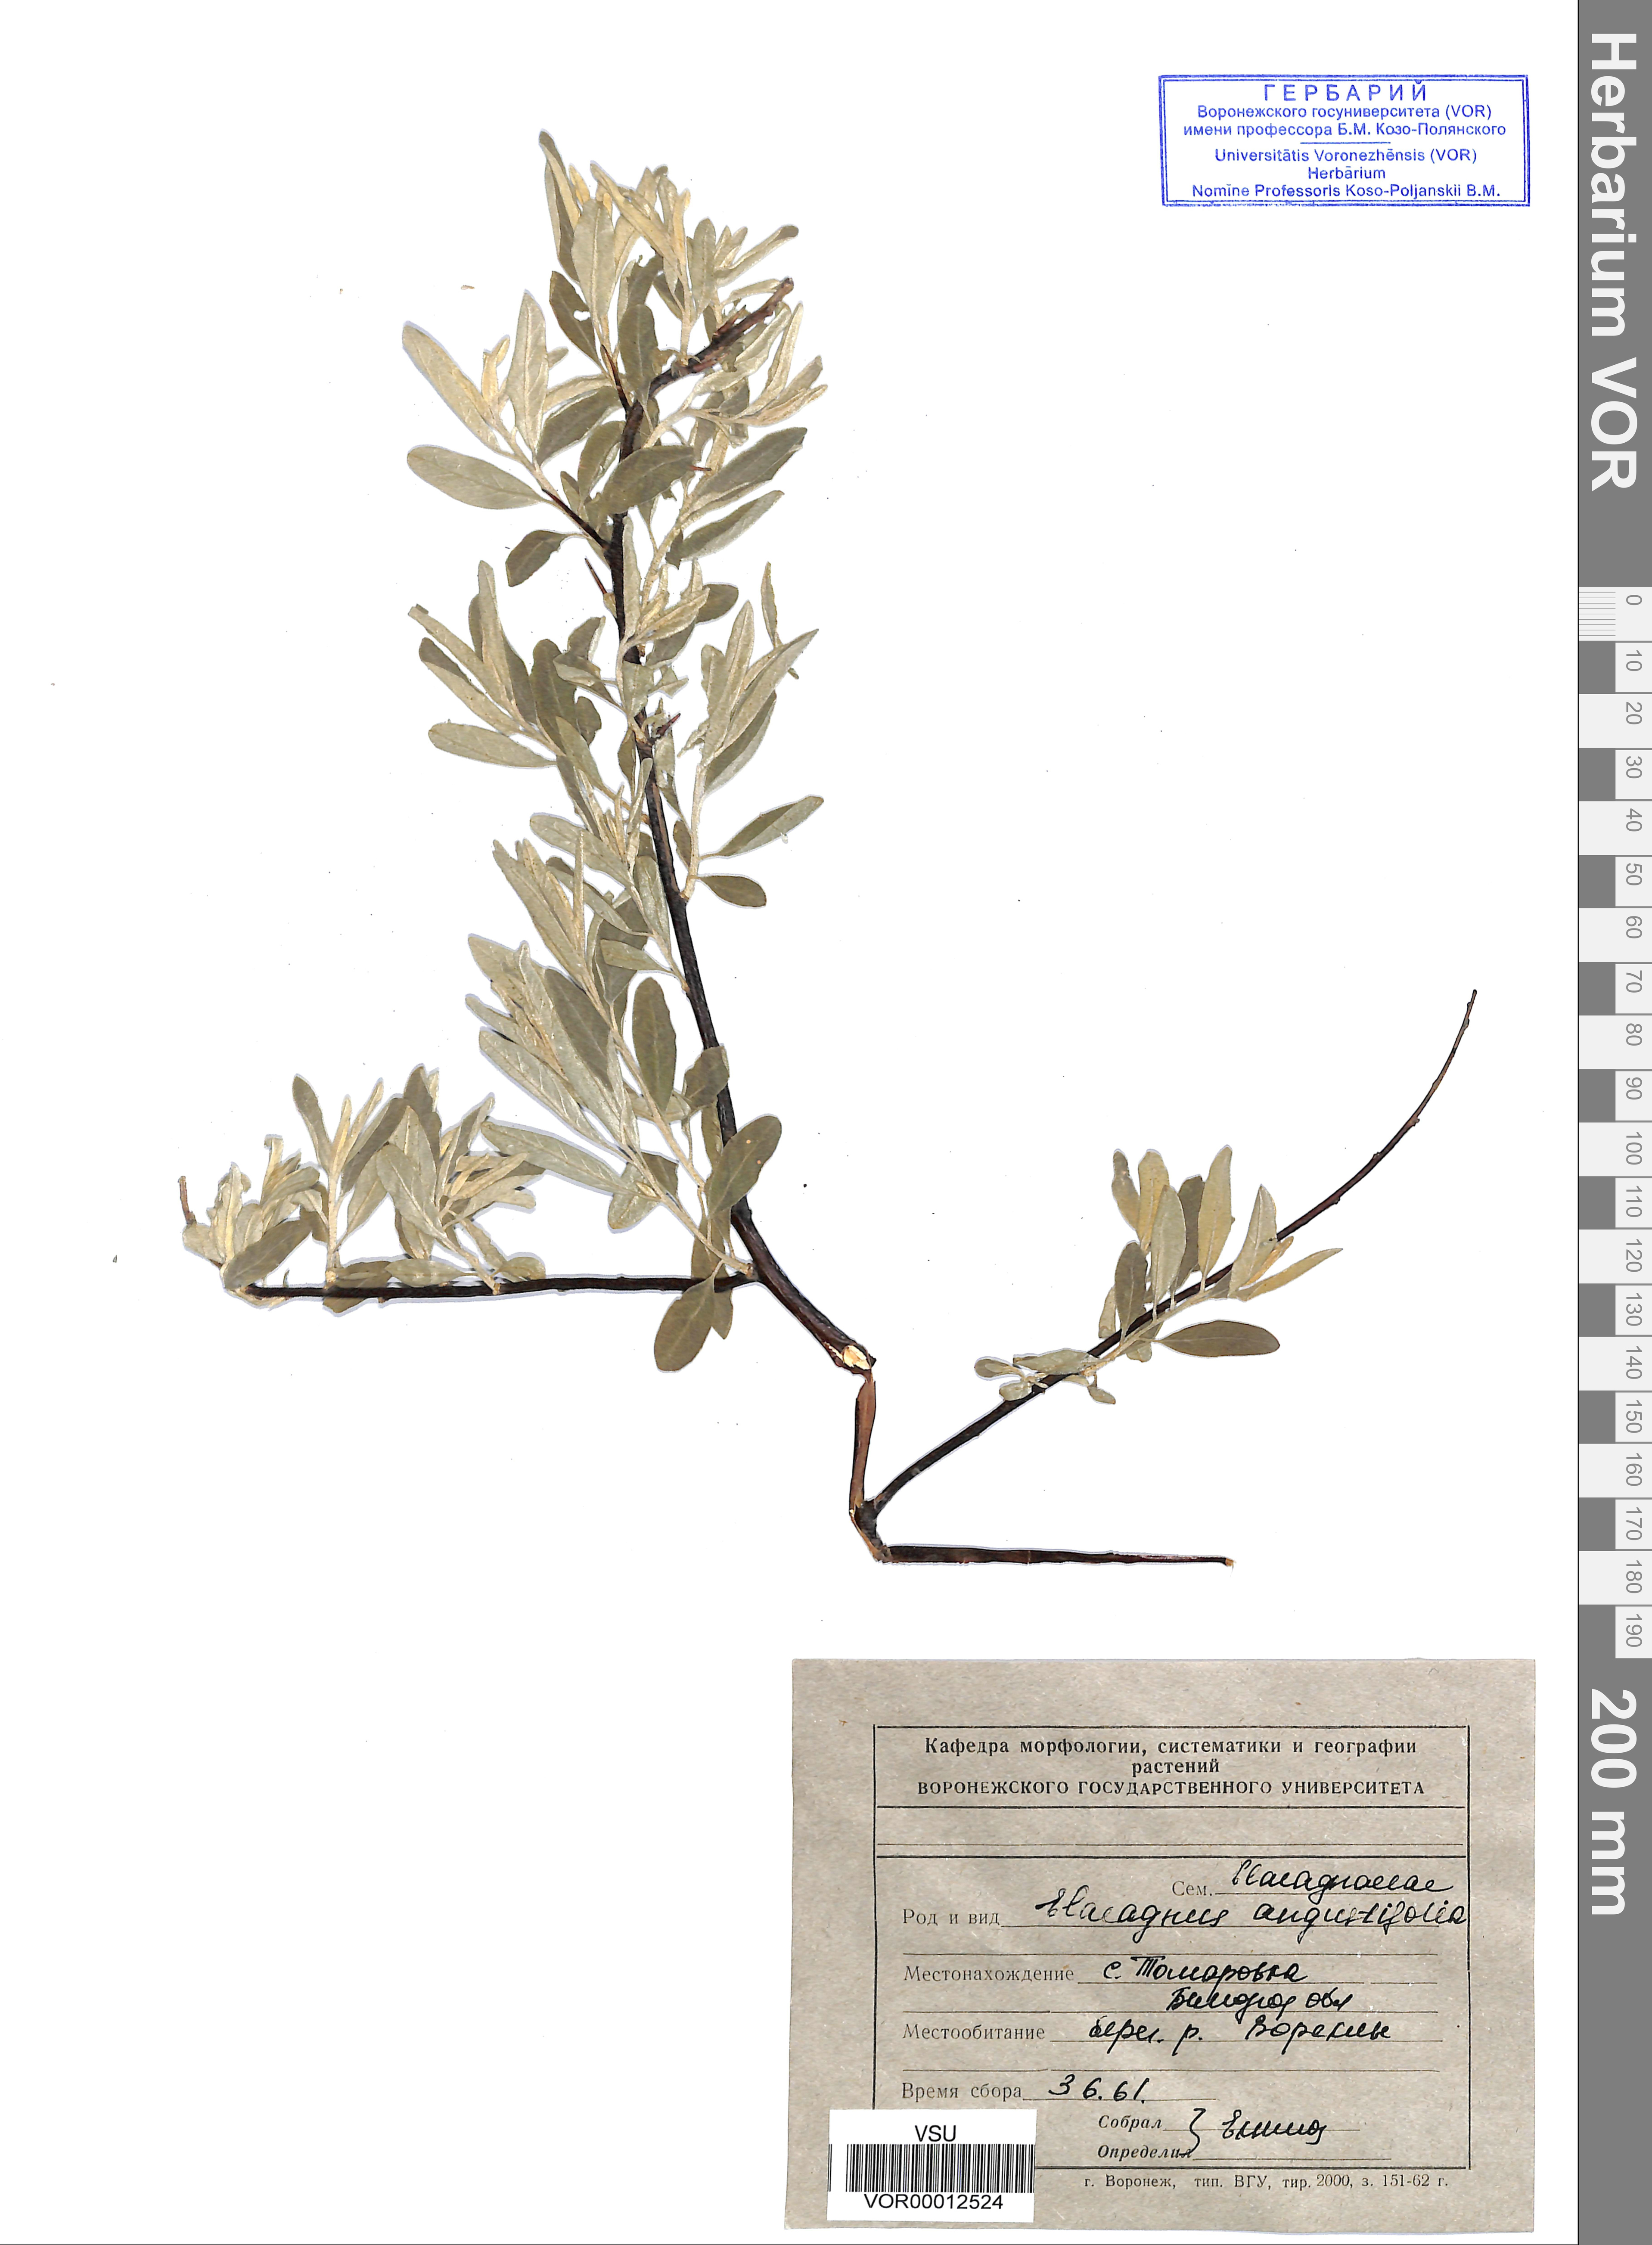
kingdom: Plantae
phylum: Tracheophyta
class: Magnoliopsida
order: Rosales
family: Elaeagnaceae
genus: Elaeagnus
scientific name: Elaeagnus angustifolia
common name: Russian olive
